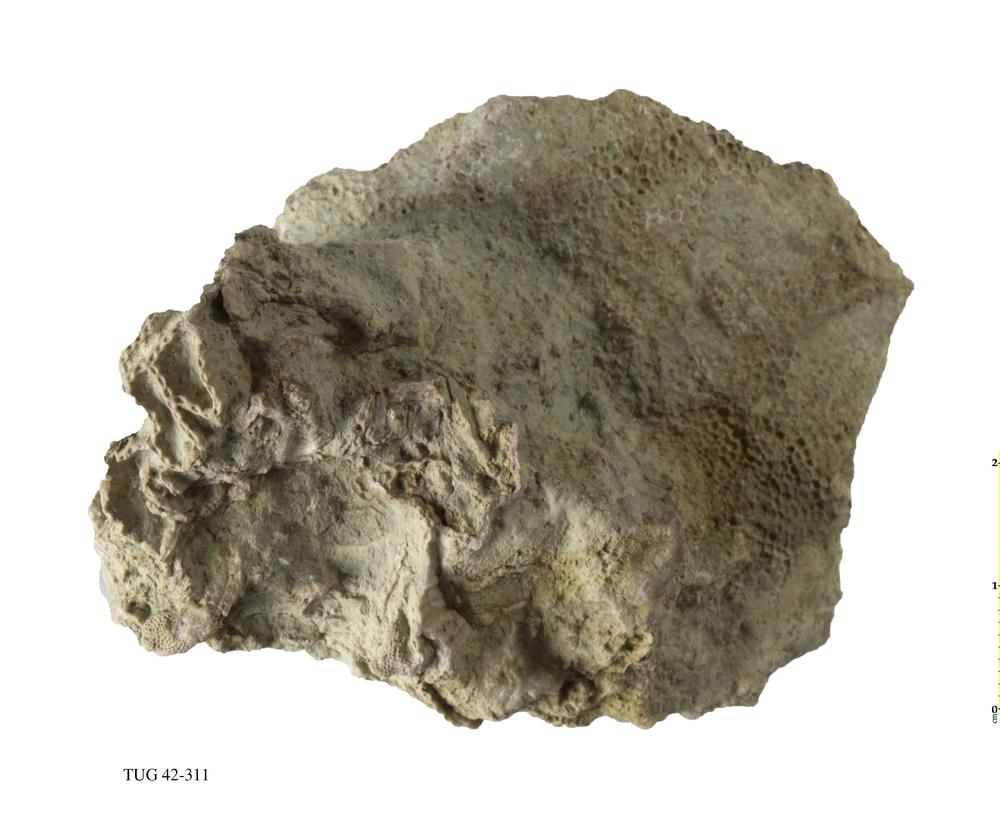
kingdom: Animalia
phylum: Cnidaria
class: Anthozoa
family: Cateniporidae
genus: Catenipora
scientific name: Catenipora exilis
